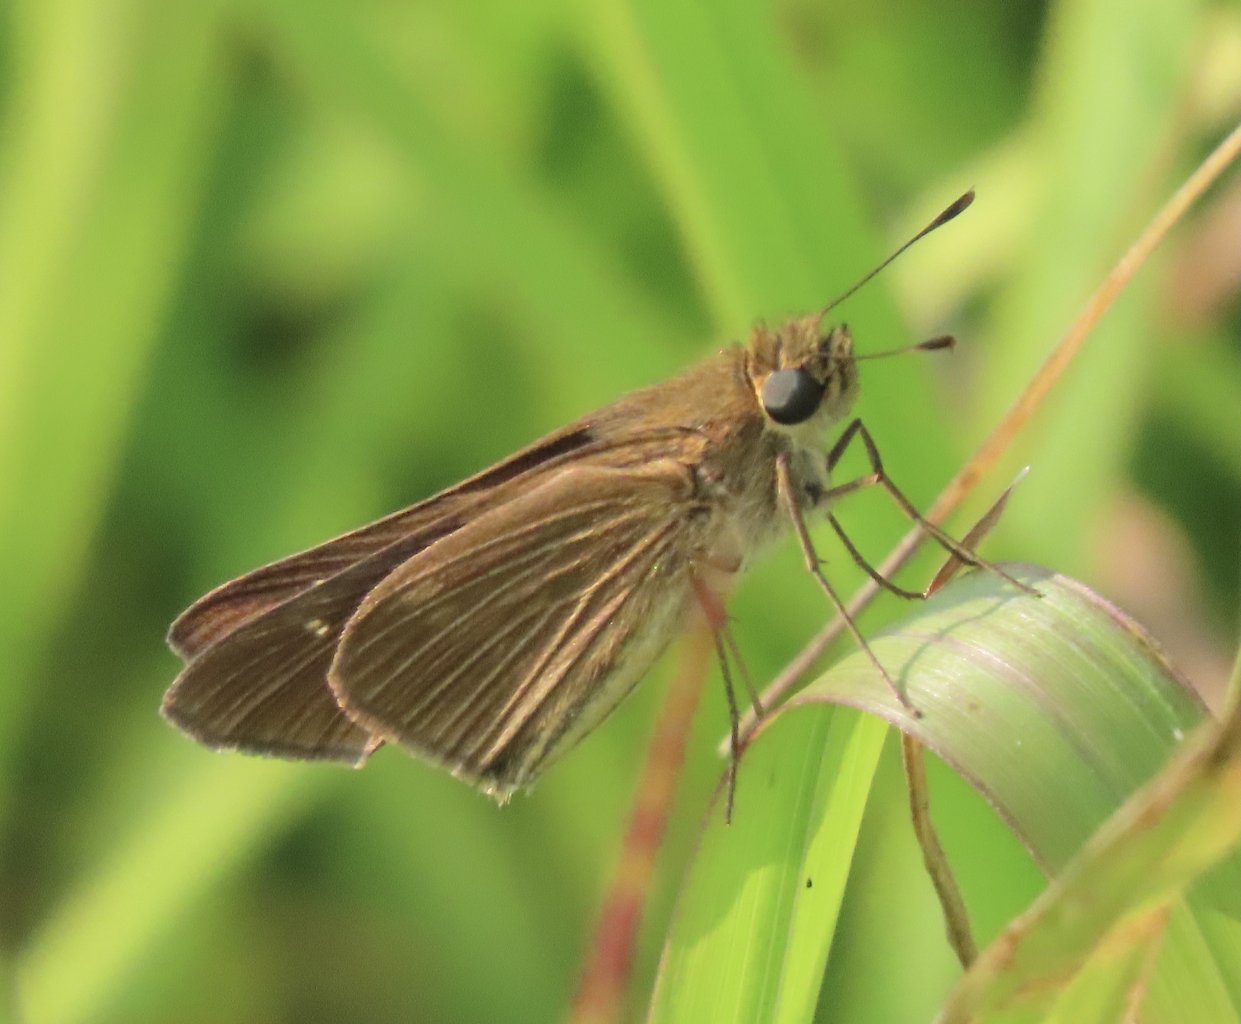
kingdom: Animalia
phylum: Arthropoda
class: Insecta
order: Lepidoptera
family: Hesperiidae
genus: Panoquina
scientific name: Panoquina ocola
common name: Ocola Skipper
